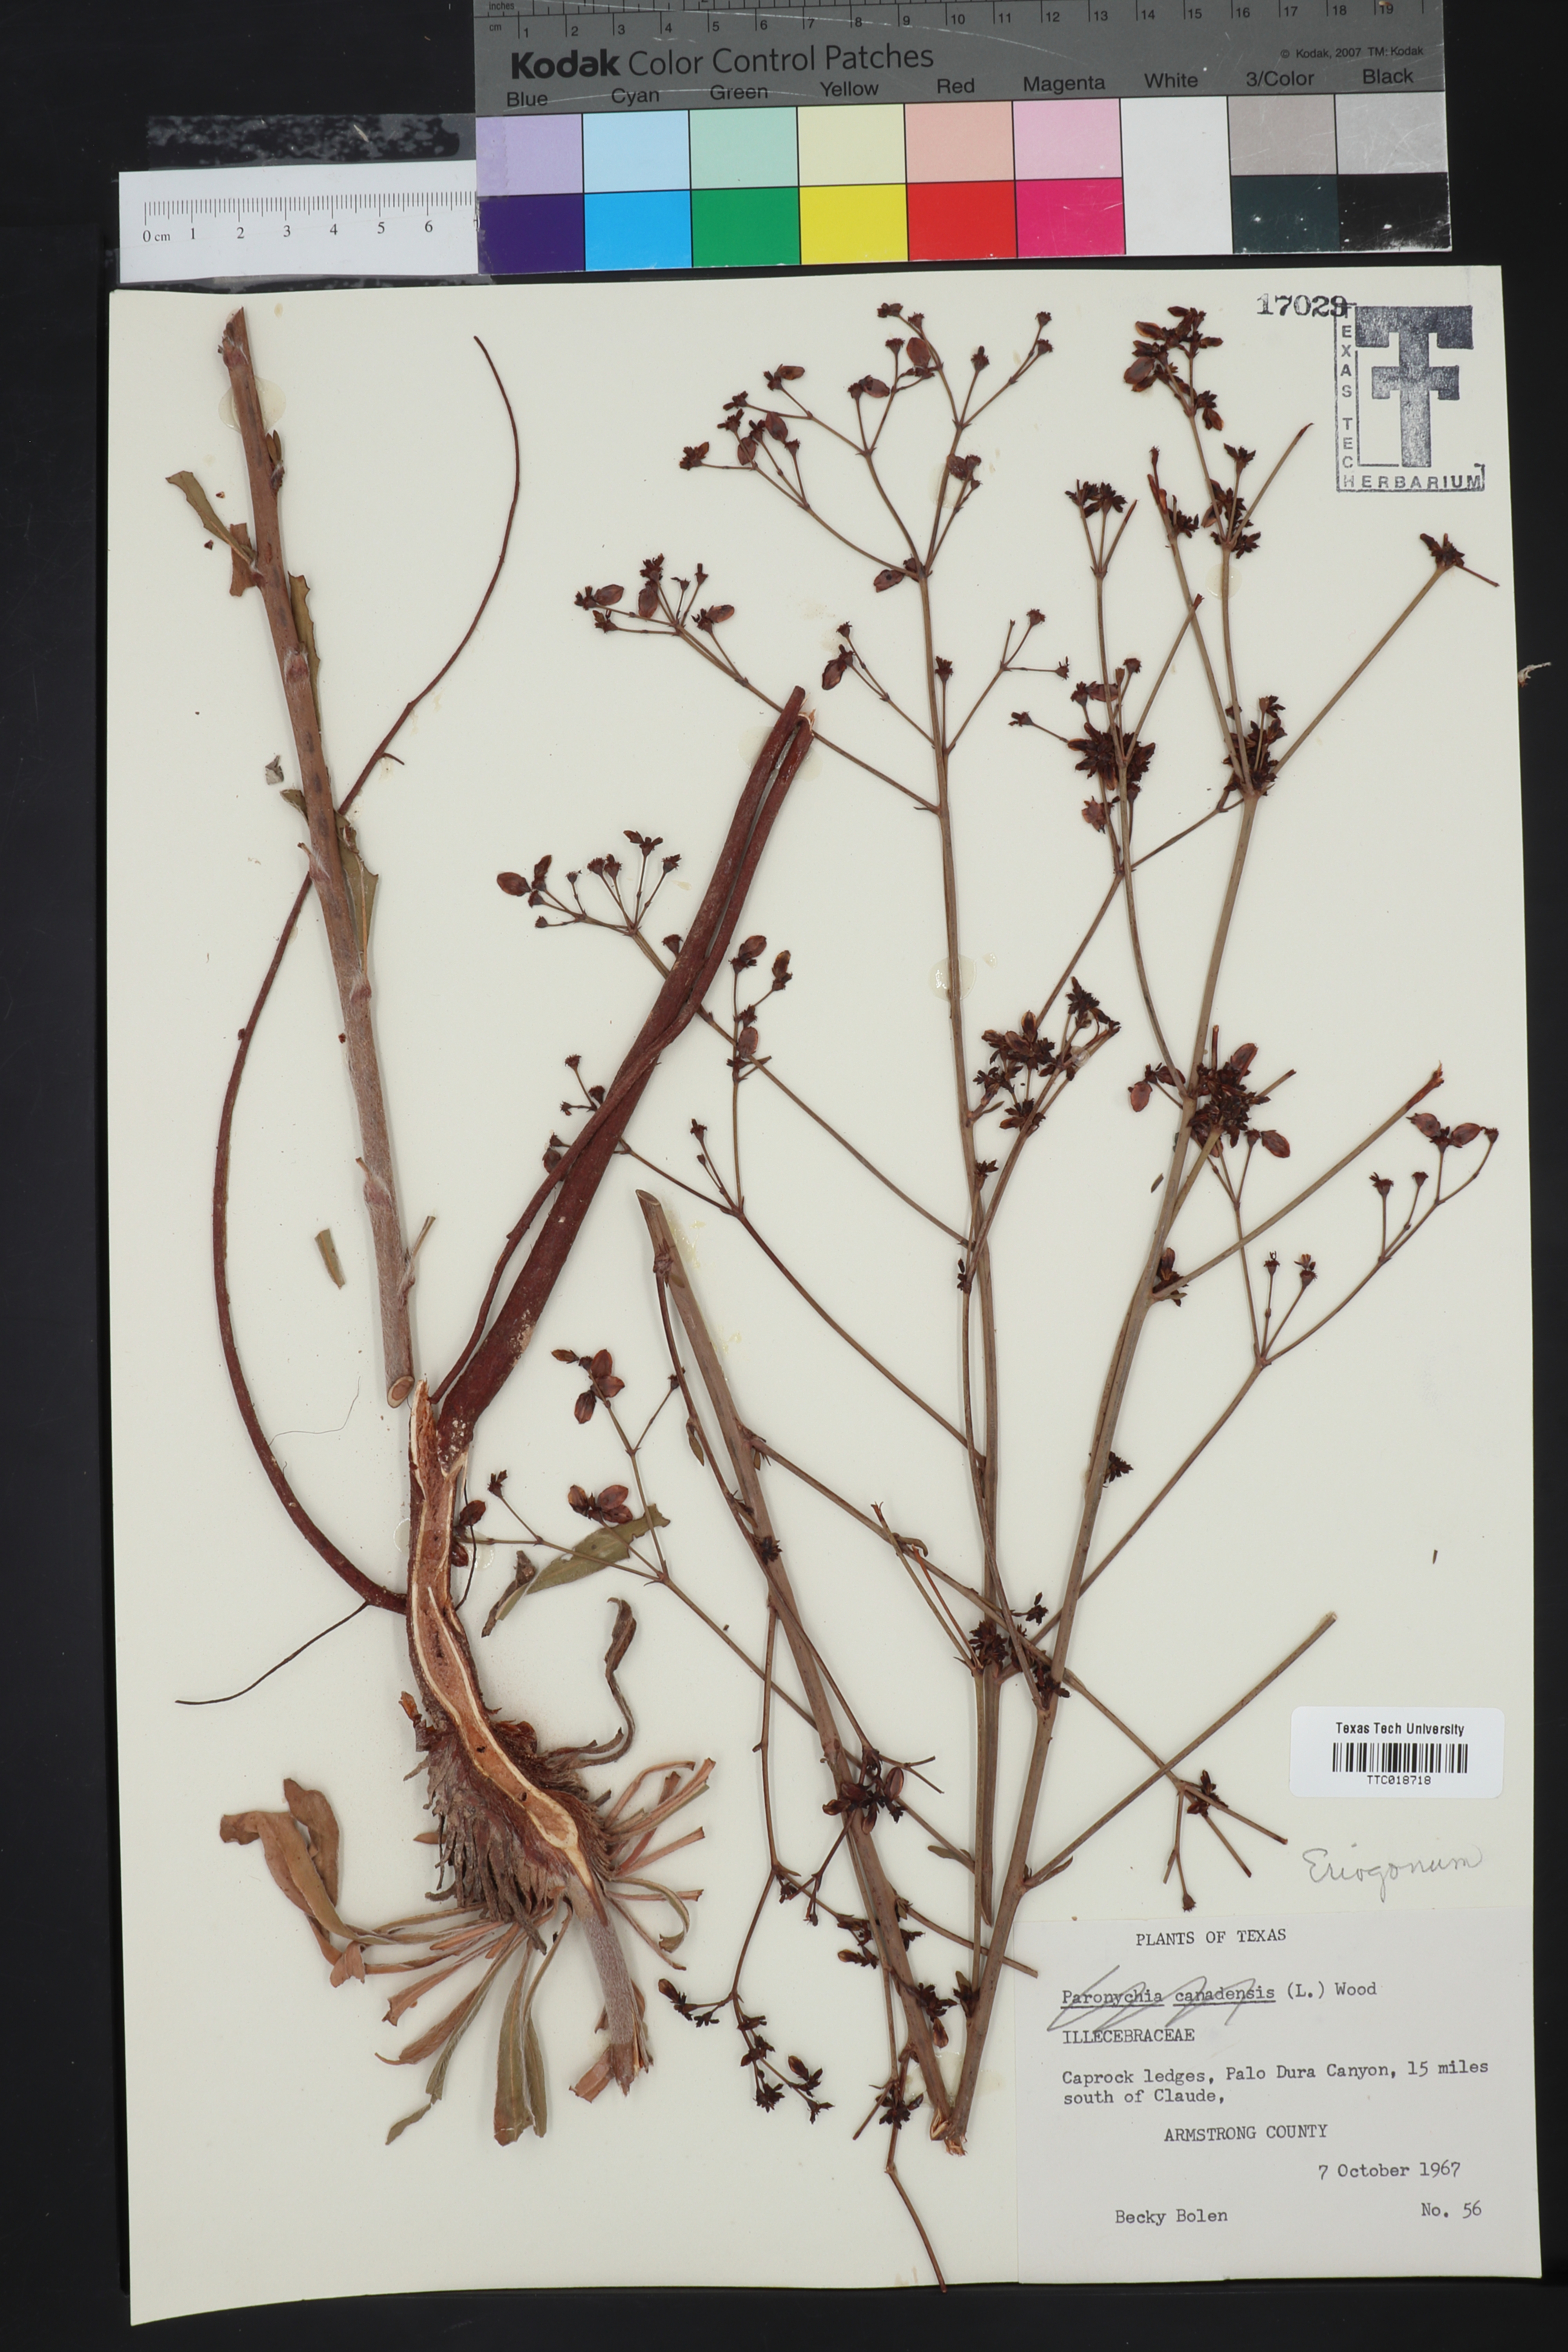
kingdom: Plantae
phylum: Tracheophyta
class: Magnoliopsida
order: Caryophyllales
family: Polygonaceae
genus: Eriogonum
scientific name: Eriogonum
